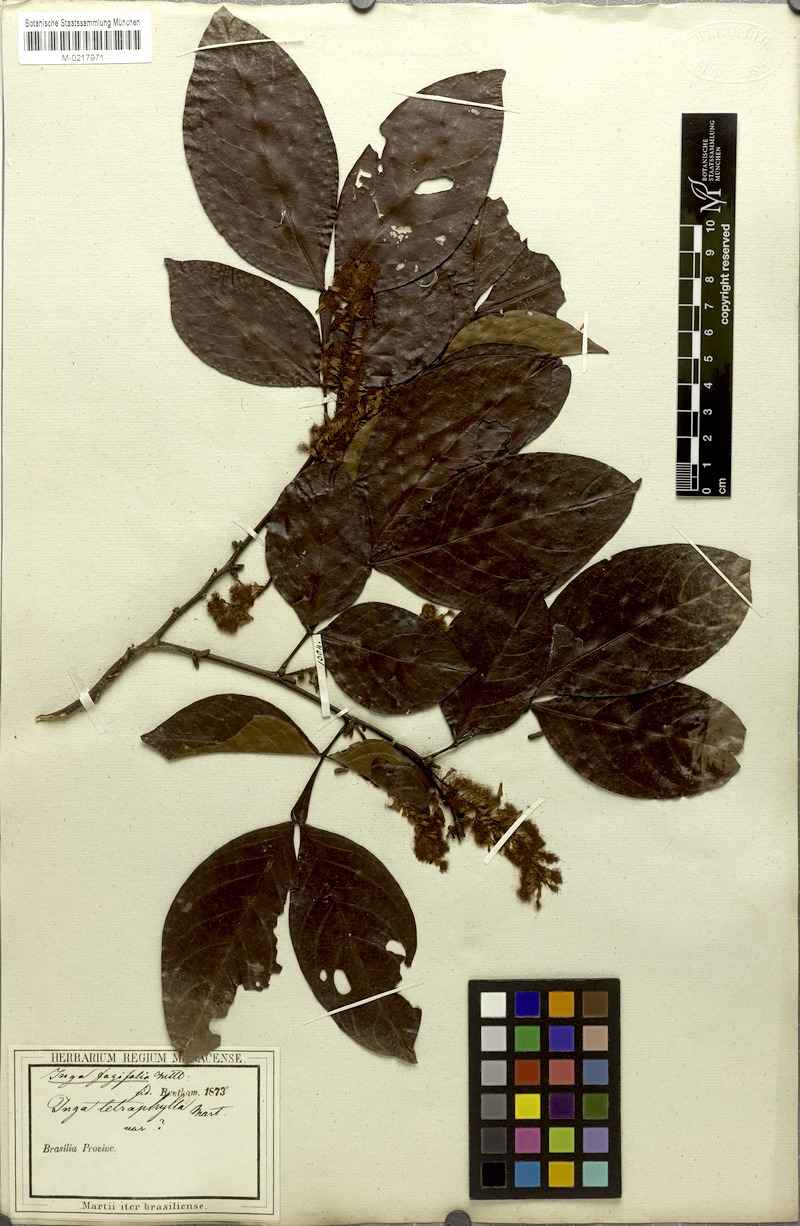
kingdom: Plantae
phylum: Tracheophyta
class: Magnoliopsida
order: Fabales
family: Fabaceae
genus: Inga
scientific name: Inga laurina
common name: Red wood
